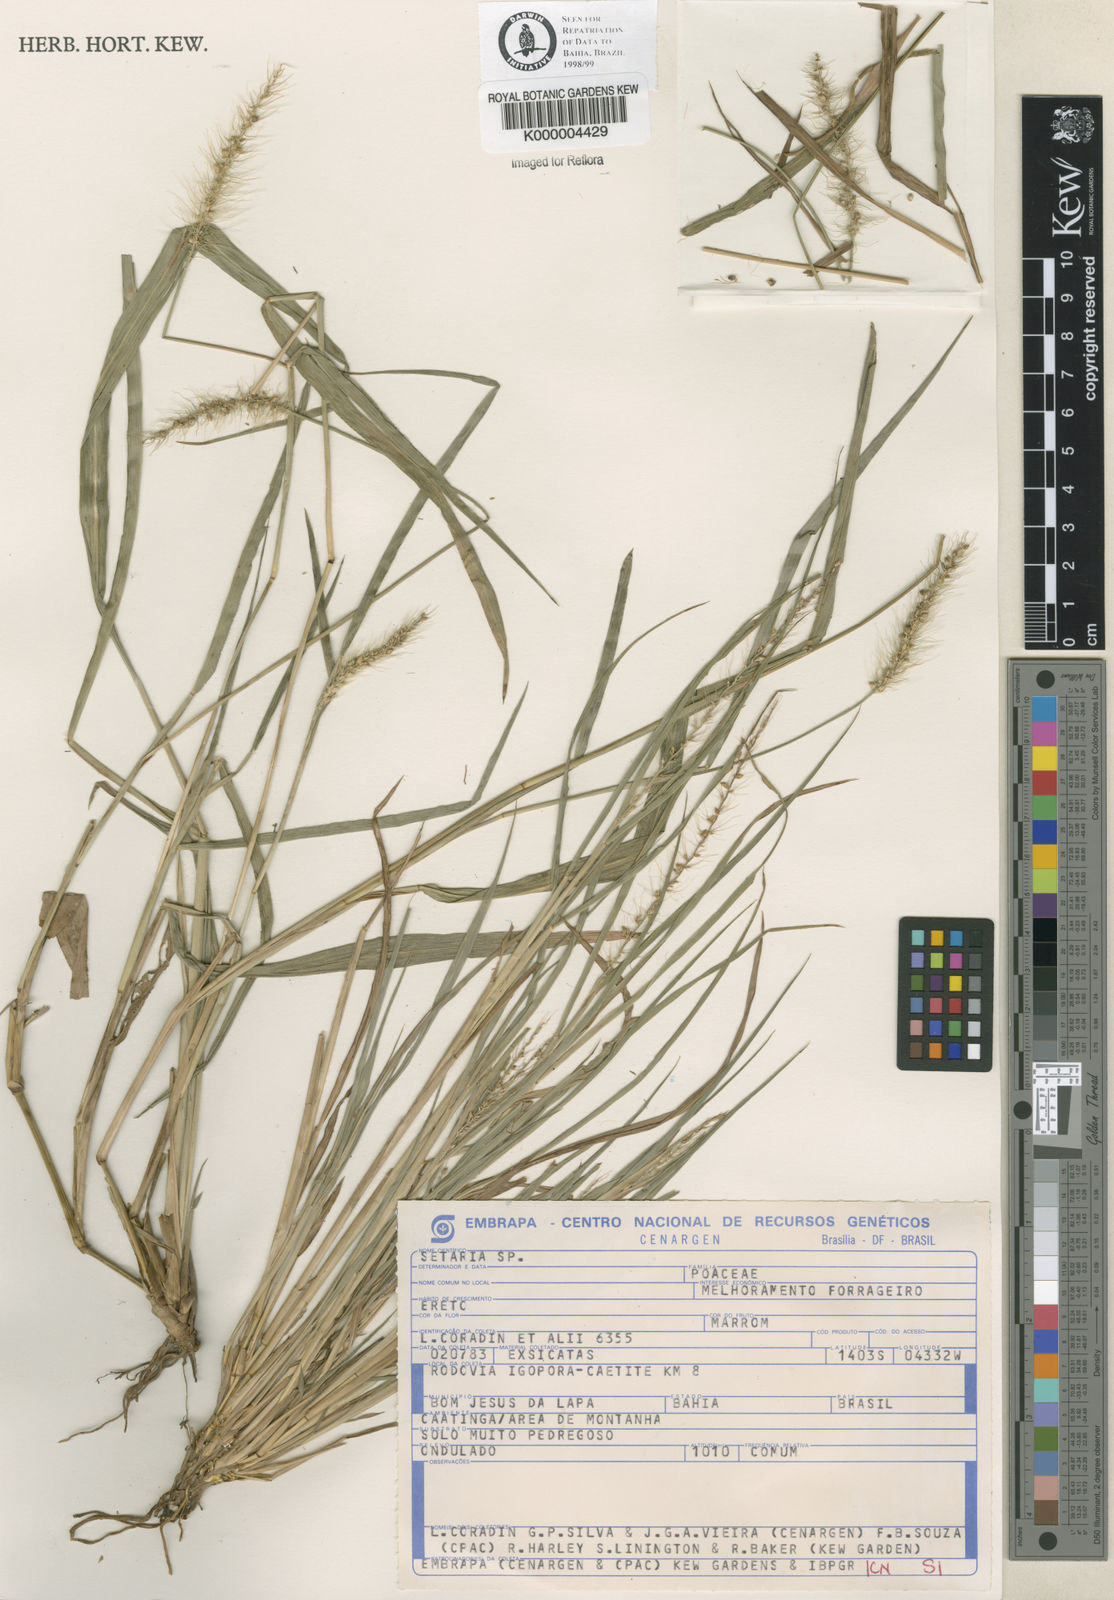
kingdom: Plantae
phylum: Tracheophyta
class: Liliopsida
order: Poales
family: Poaceae
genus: Setaria
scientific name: Setaria
